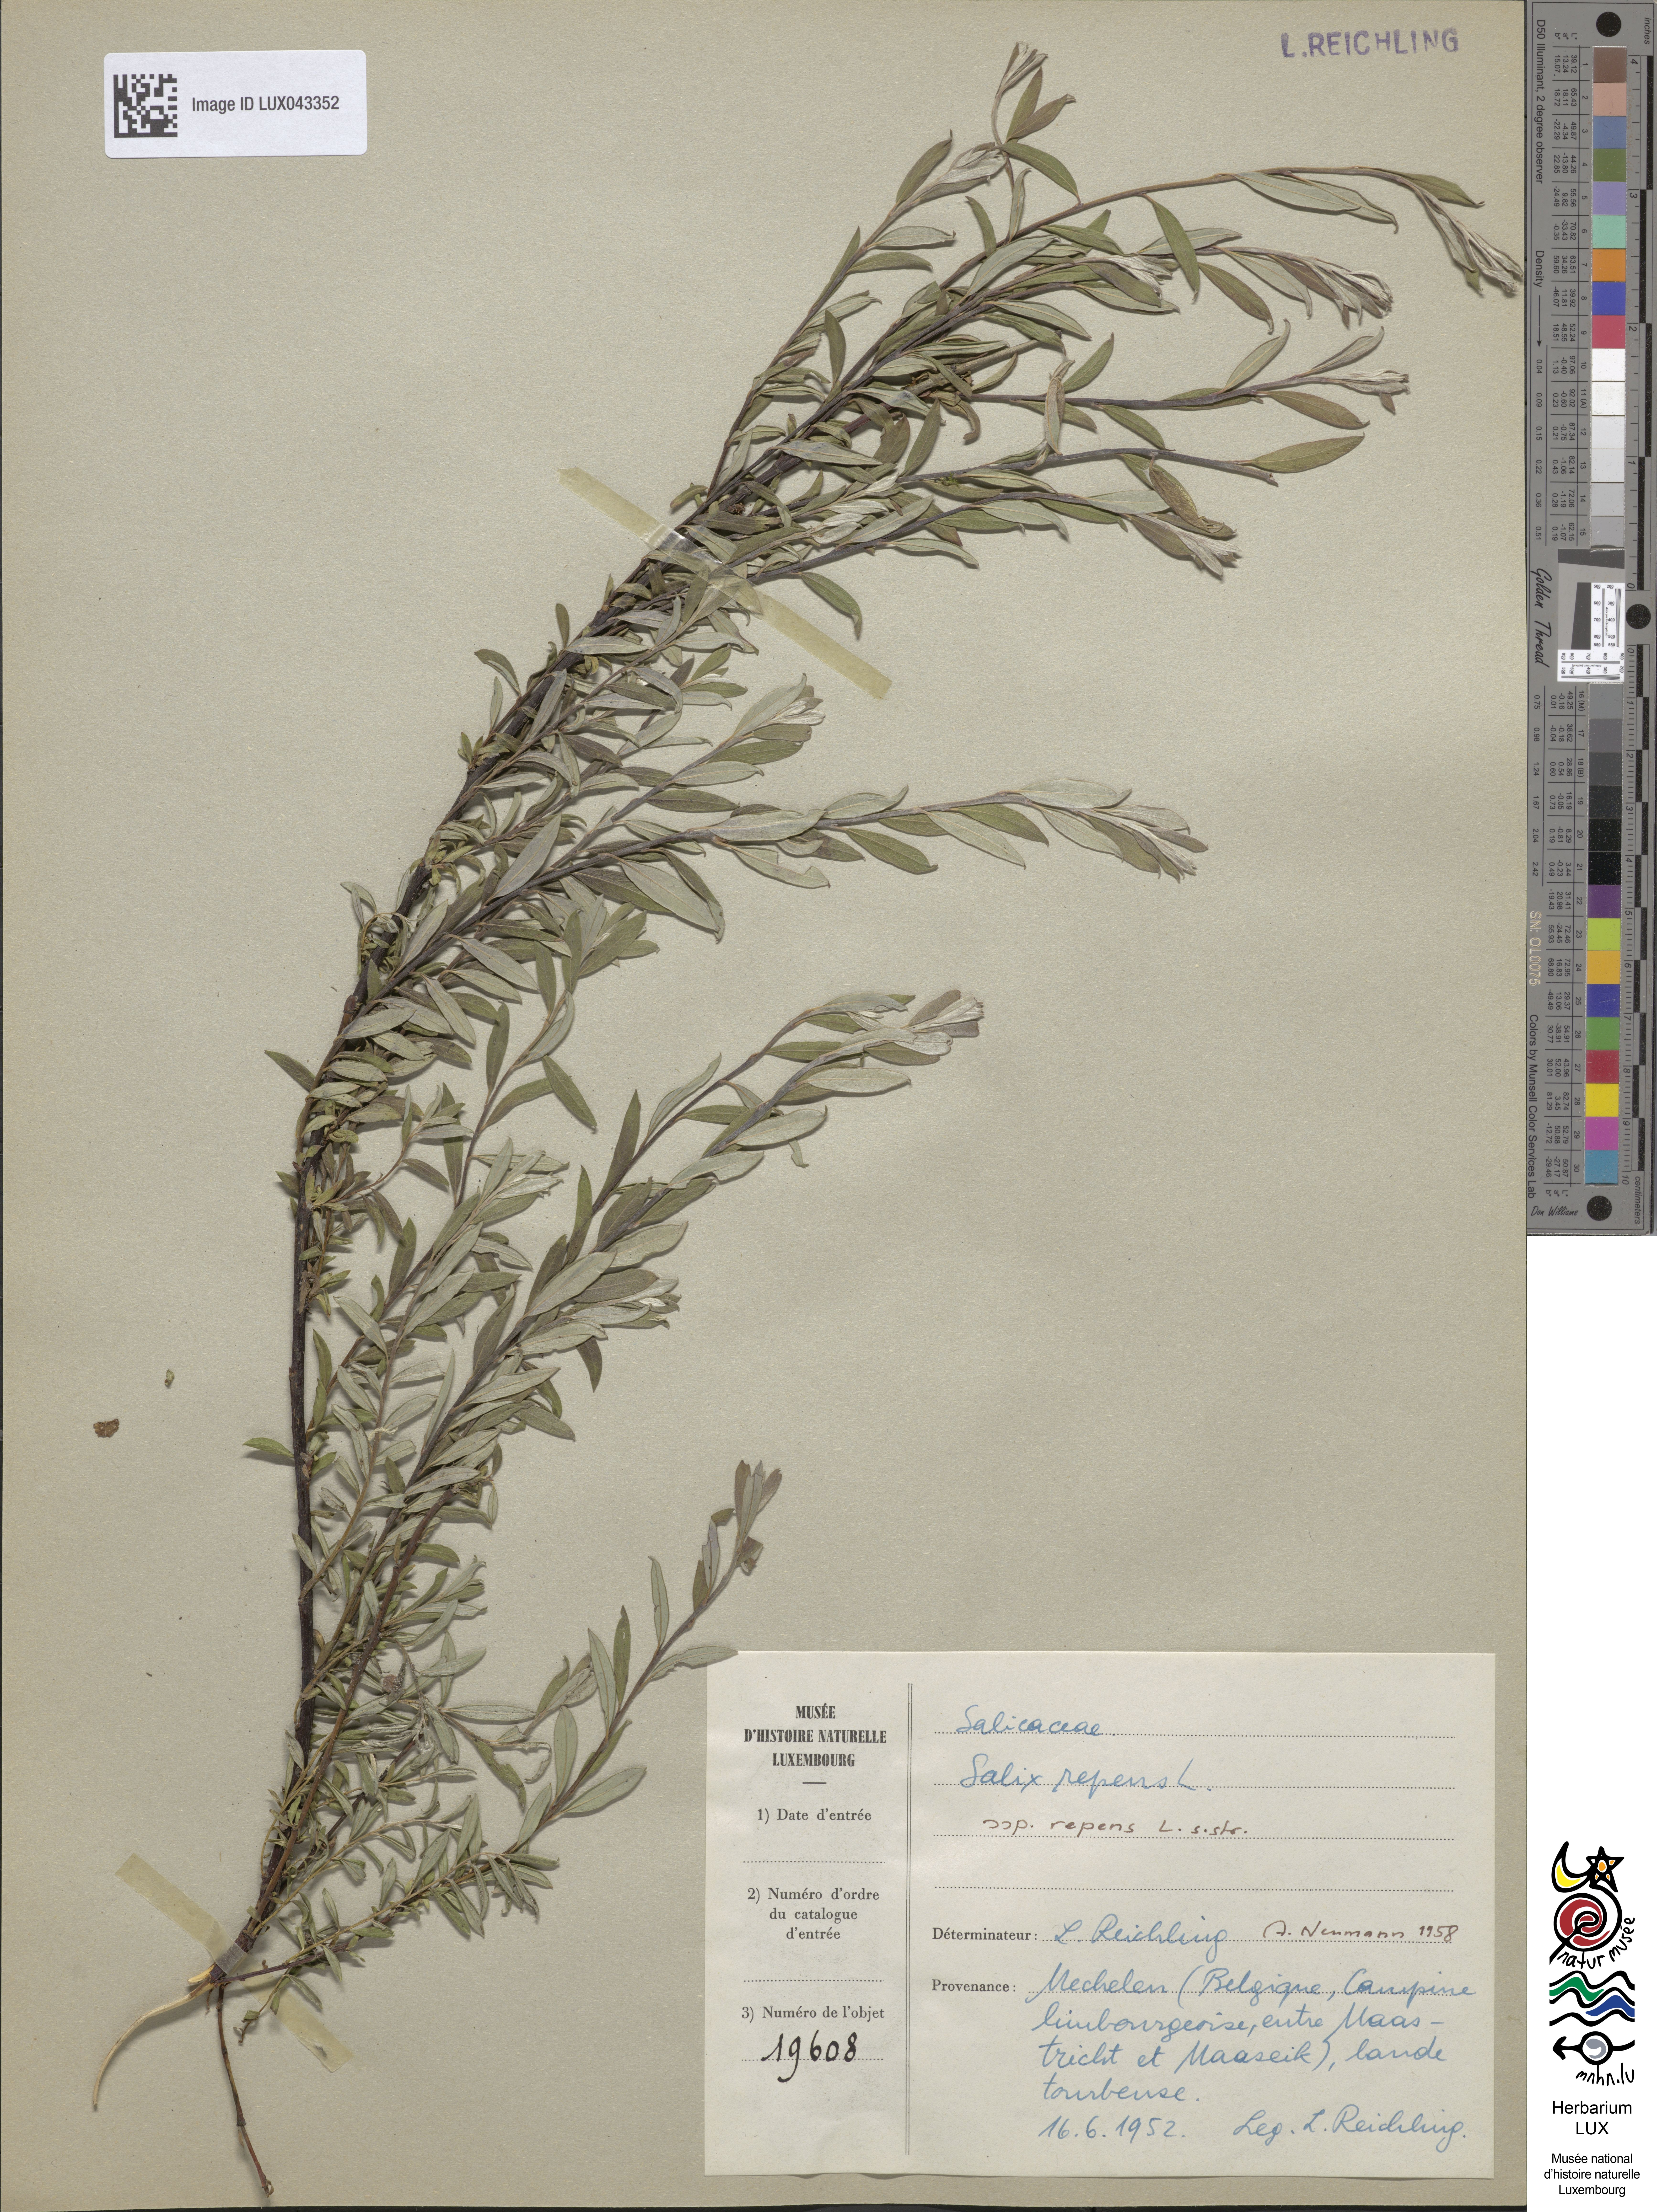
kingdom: Plantae
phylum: Tracheophyta
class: Magnoliopsida
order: Malpighiales
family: Salicaceae
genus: Salix
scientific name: Salix repens
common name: Creeping willow
